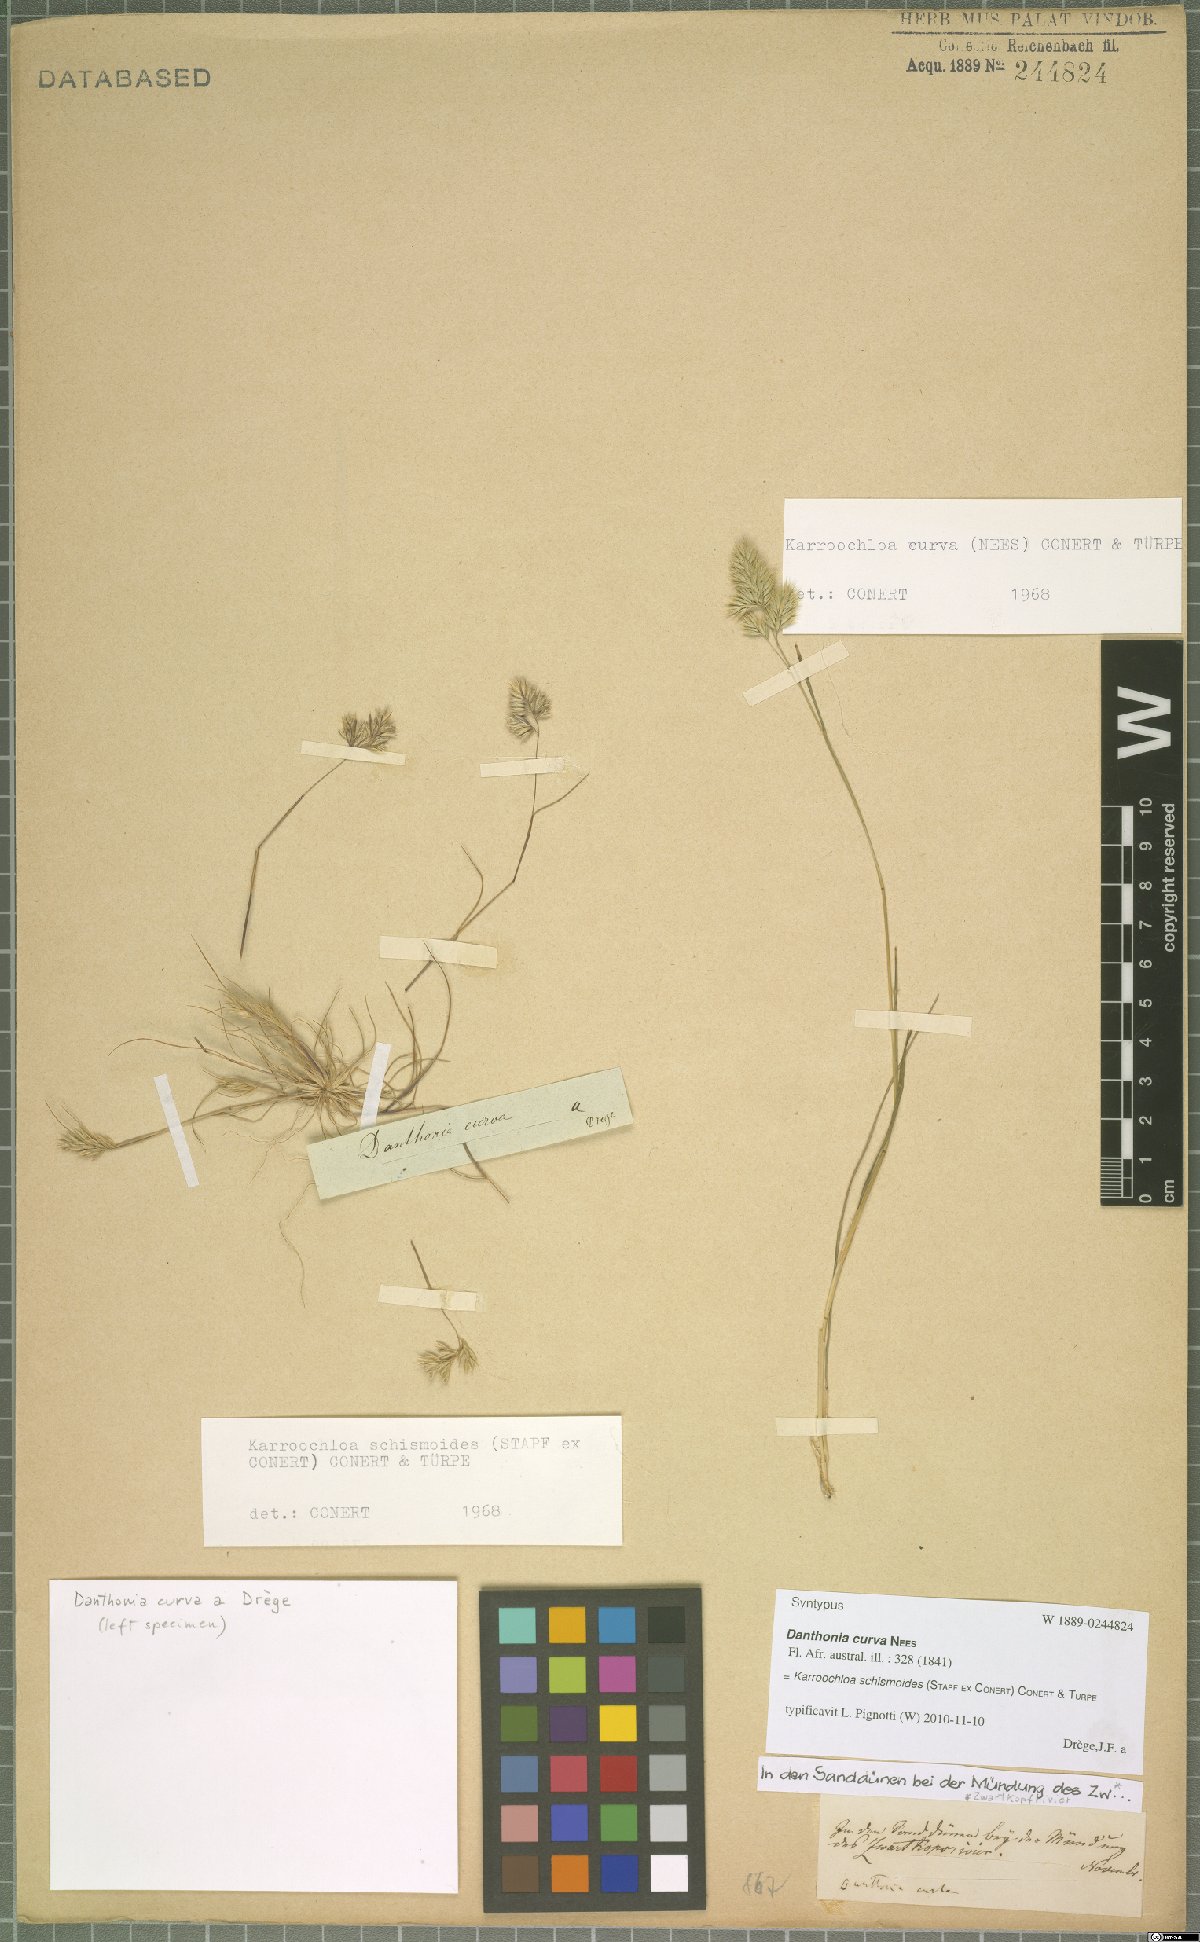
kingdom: Plantae
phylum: Tracheophyta
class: Liliopsida
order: Poales
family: Poaceae
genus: Schismus
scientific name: Schismus schismoides
